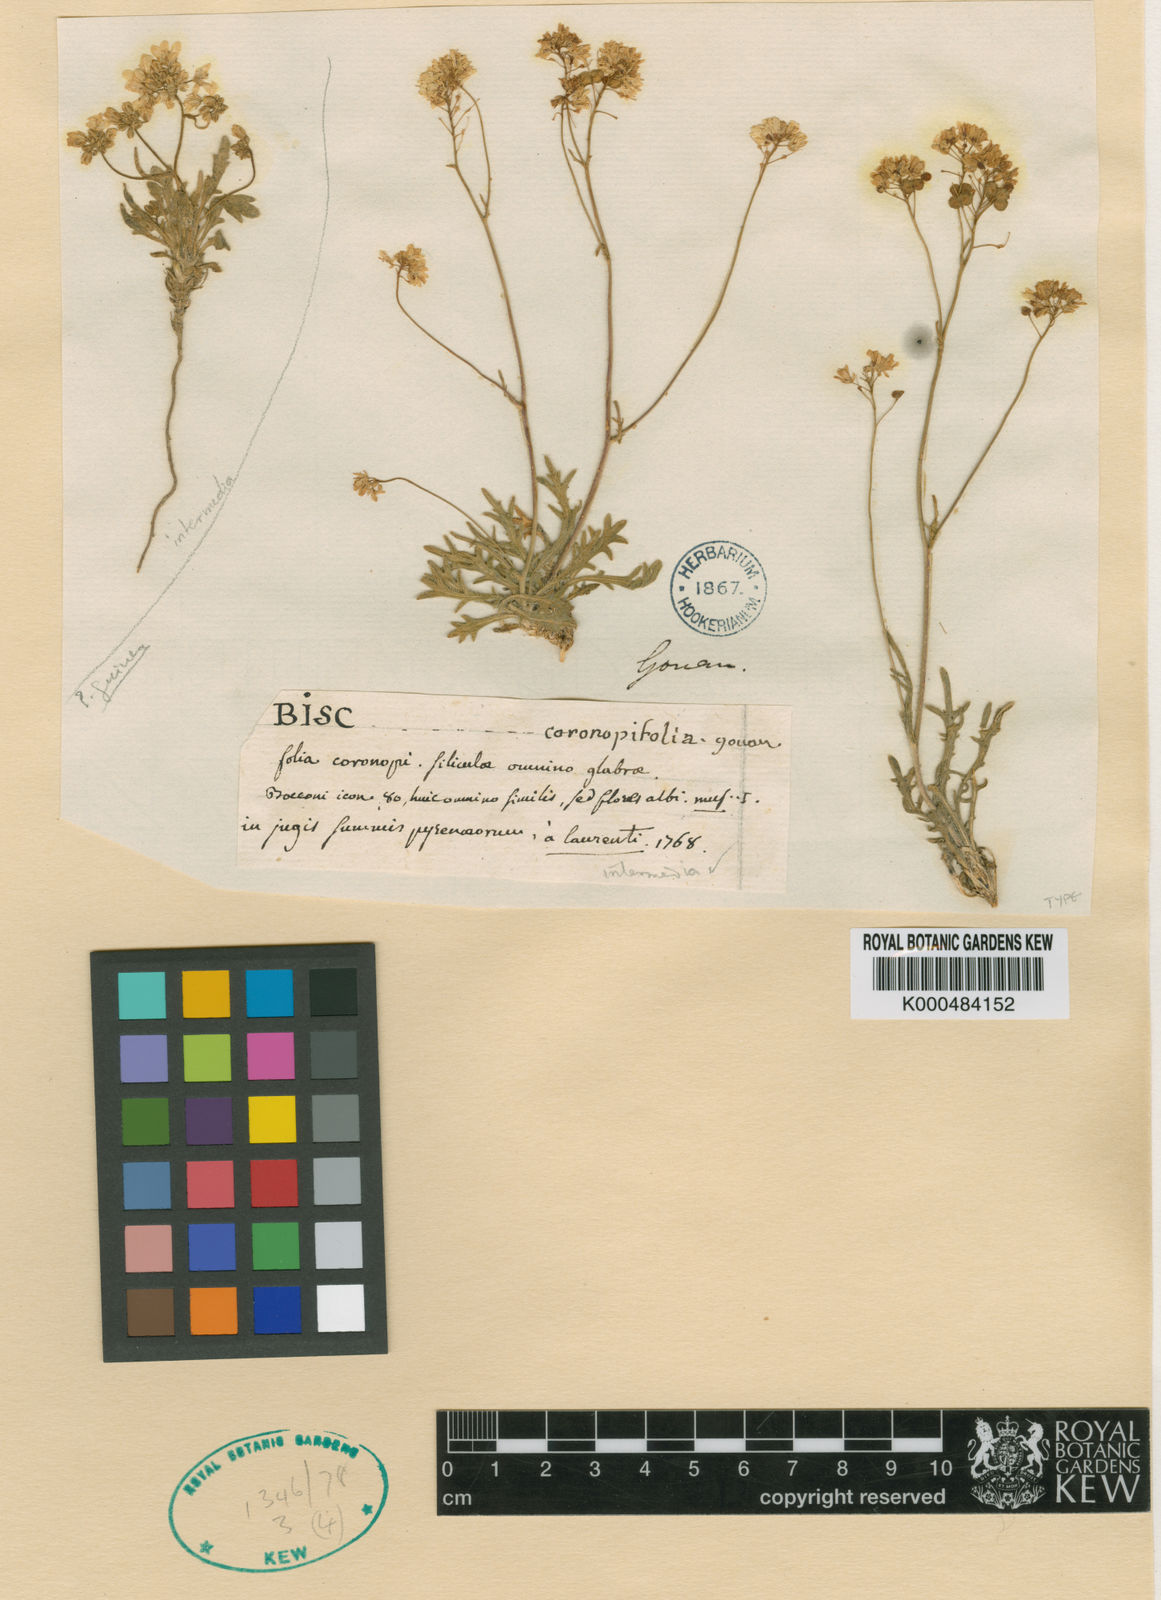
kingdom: Plantae
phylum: Tracheophyta
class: Magnoliopsida
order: Brassicales
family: Brassicaceae
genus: Biscutella
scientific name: Biscutella intermedia
